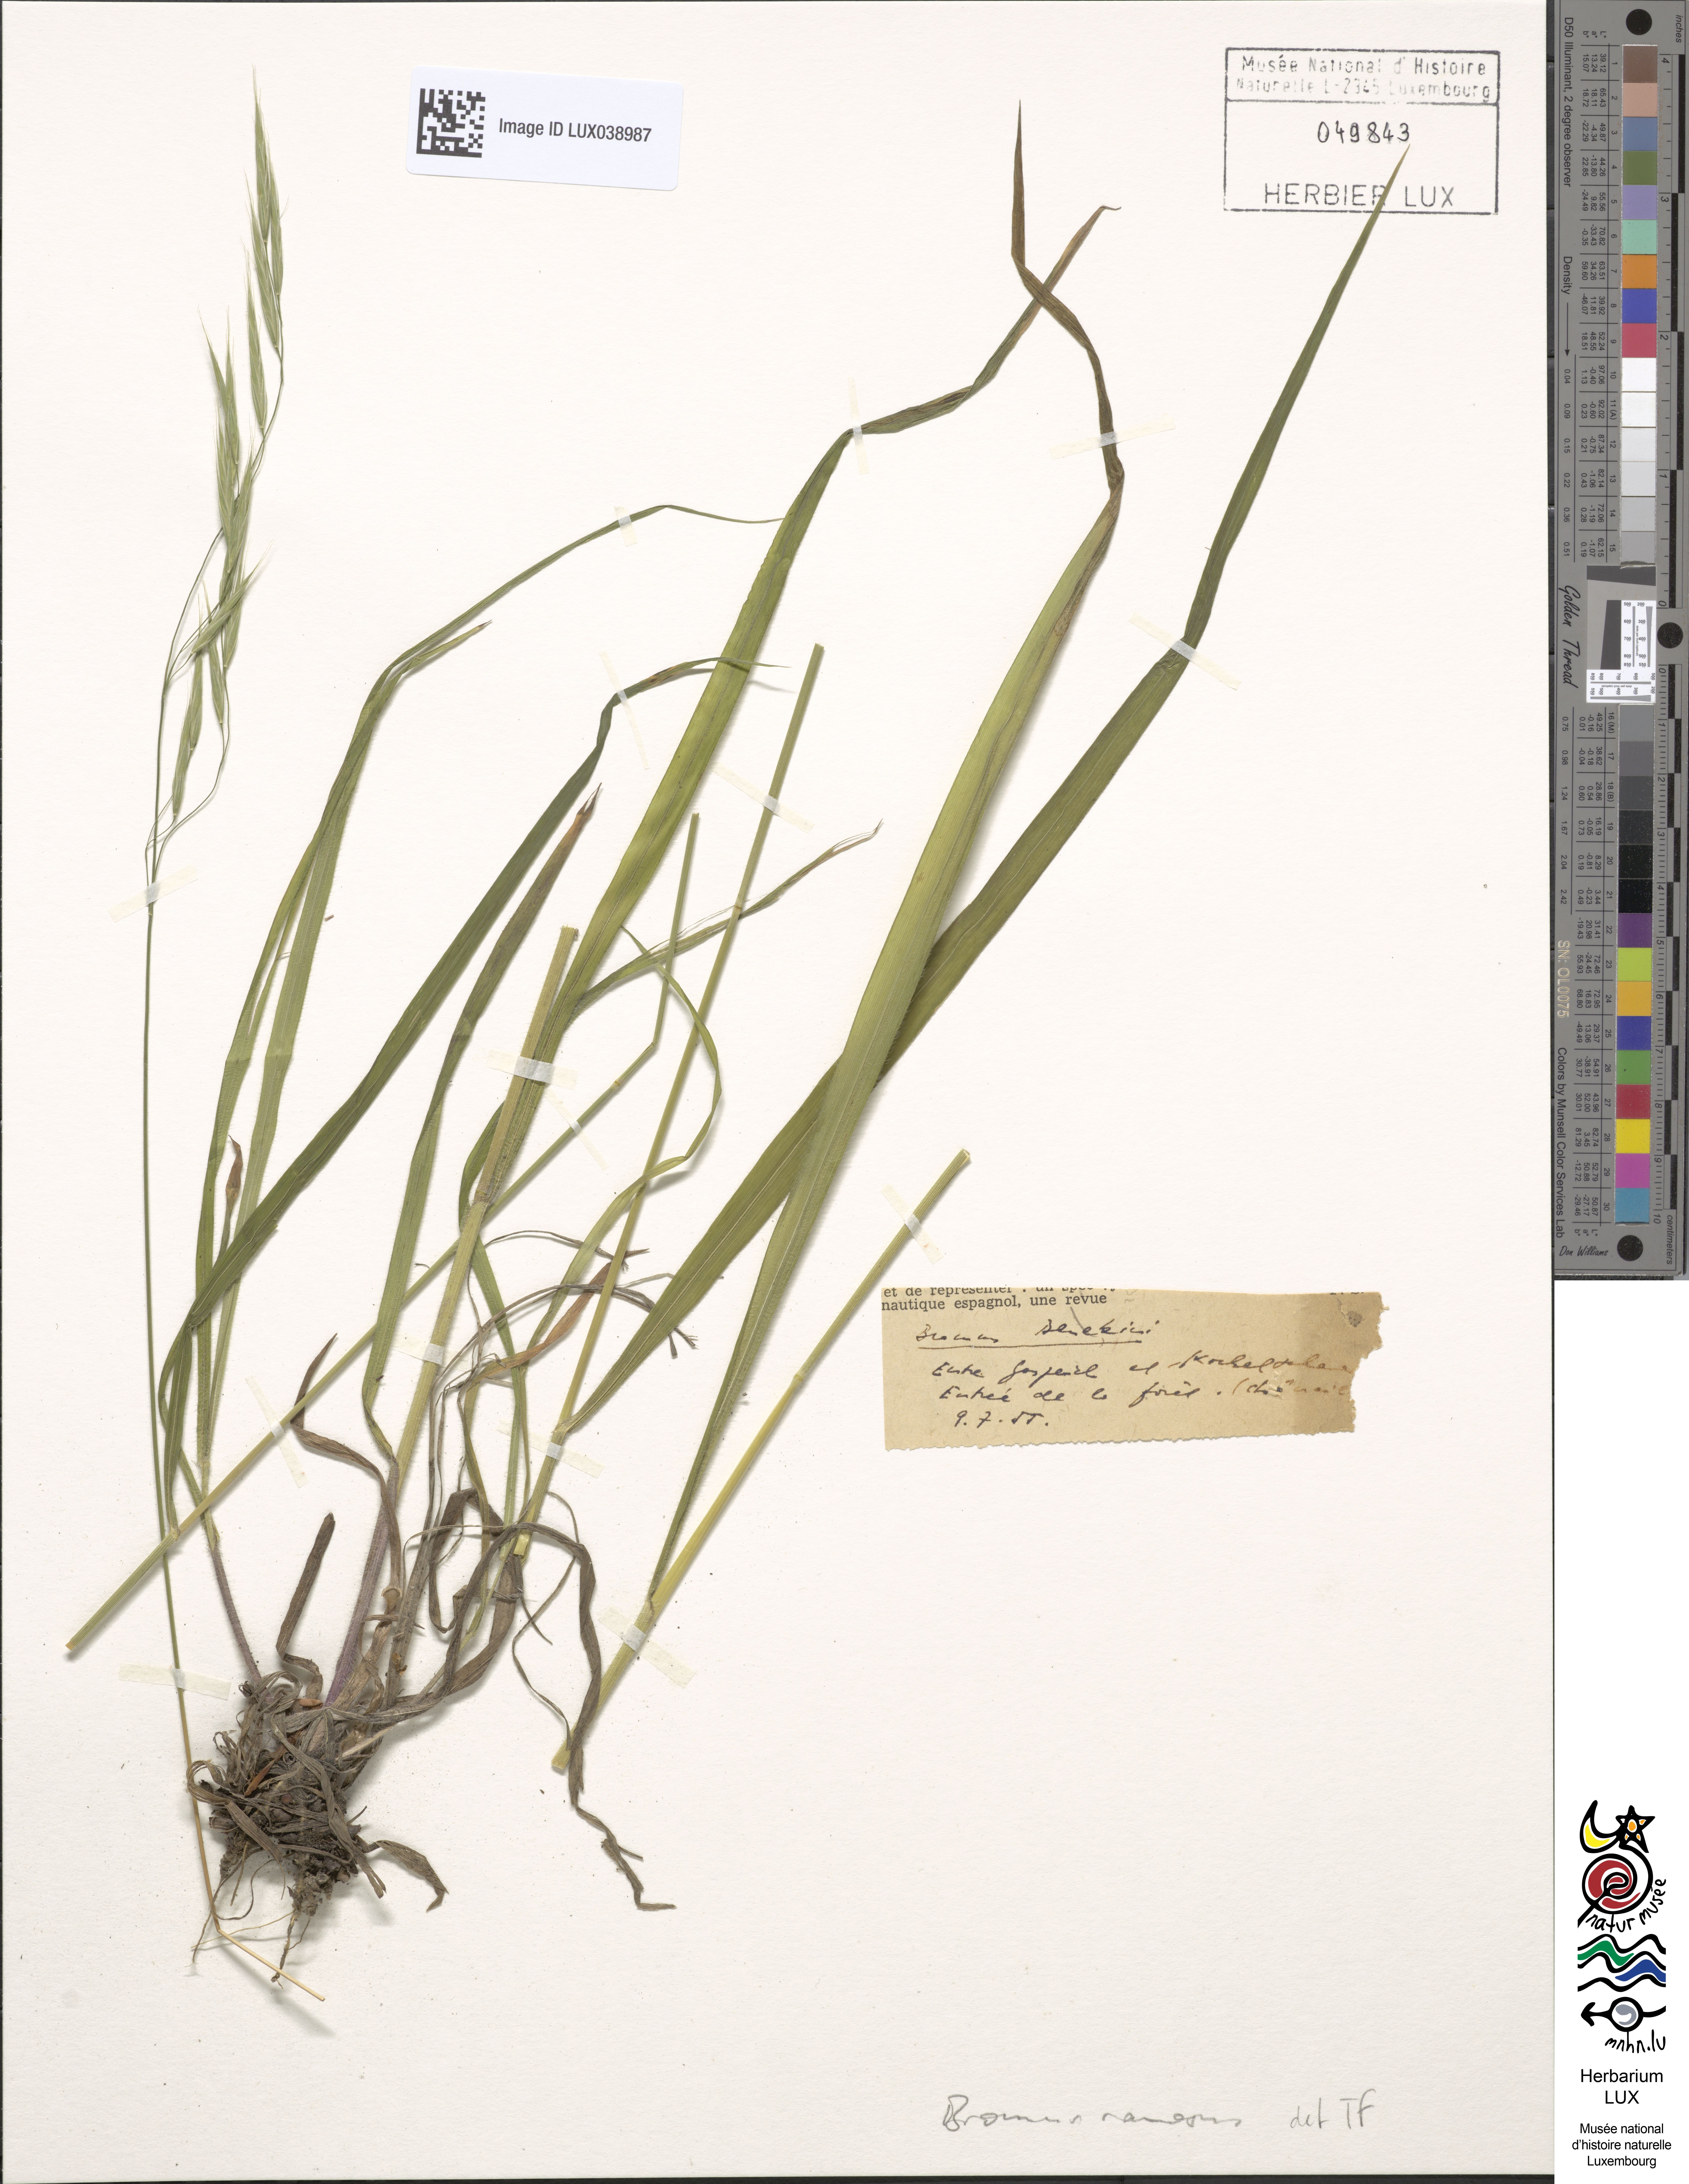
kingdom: Plantae
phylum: Tracheophyta
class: Liliopsida
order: Poales
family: Poaceae
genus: Bromus
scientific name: Bromus ramosus
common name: Hairy brome
